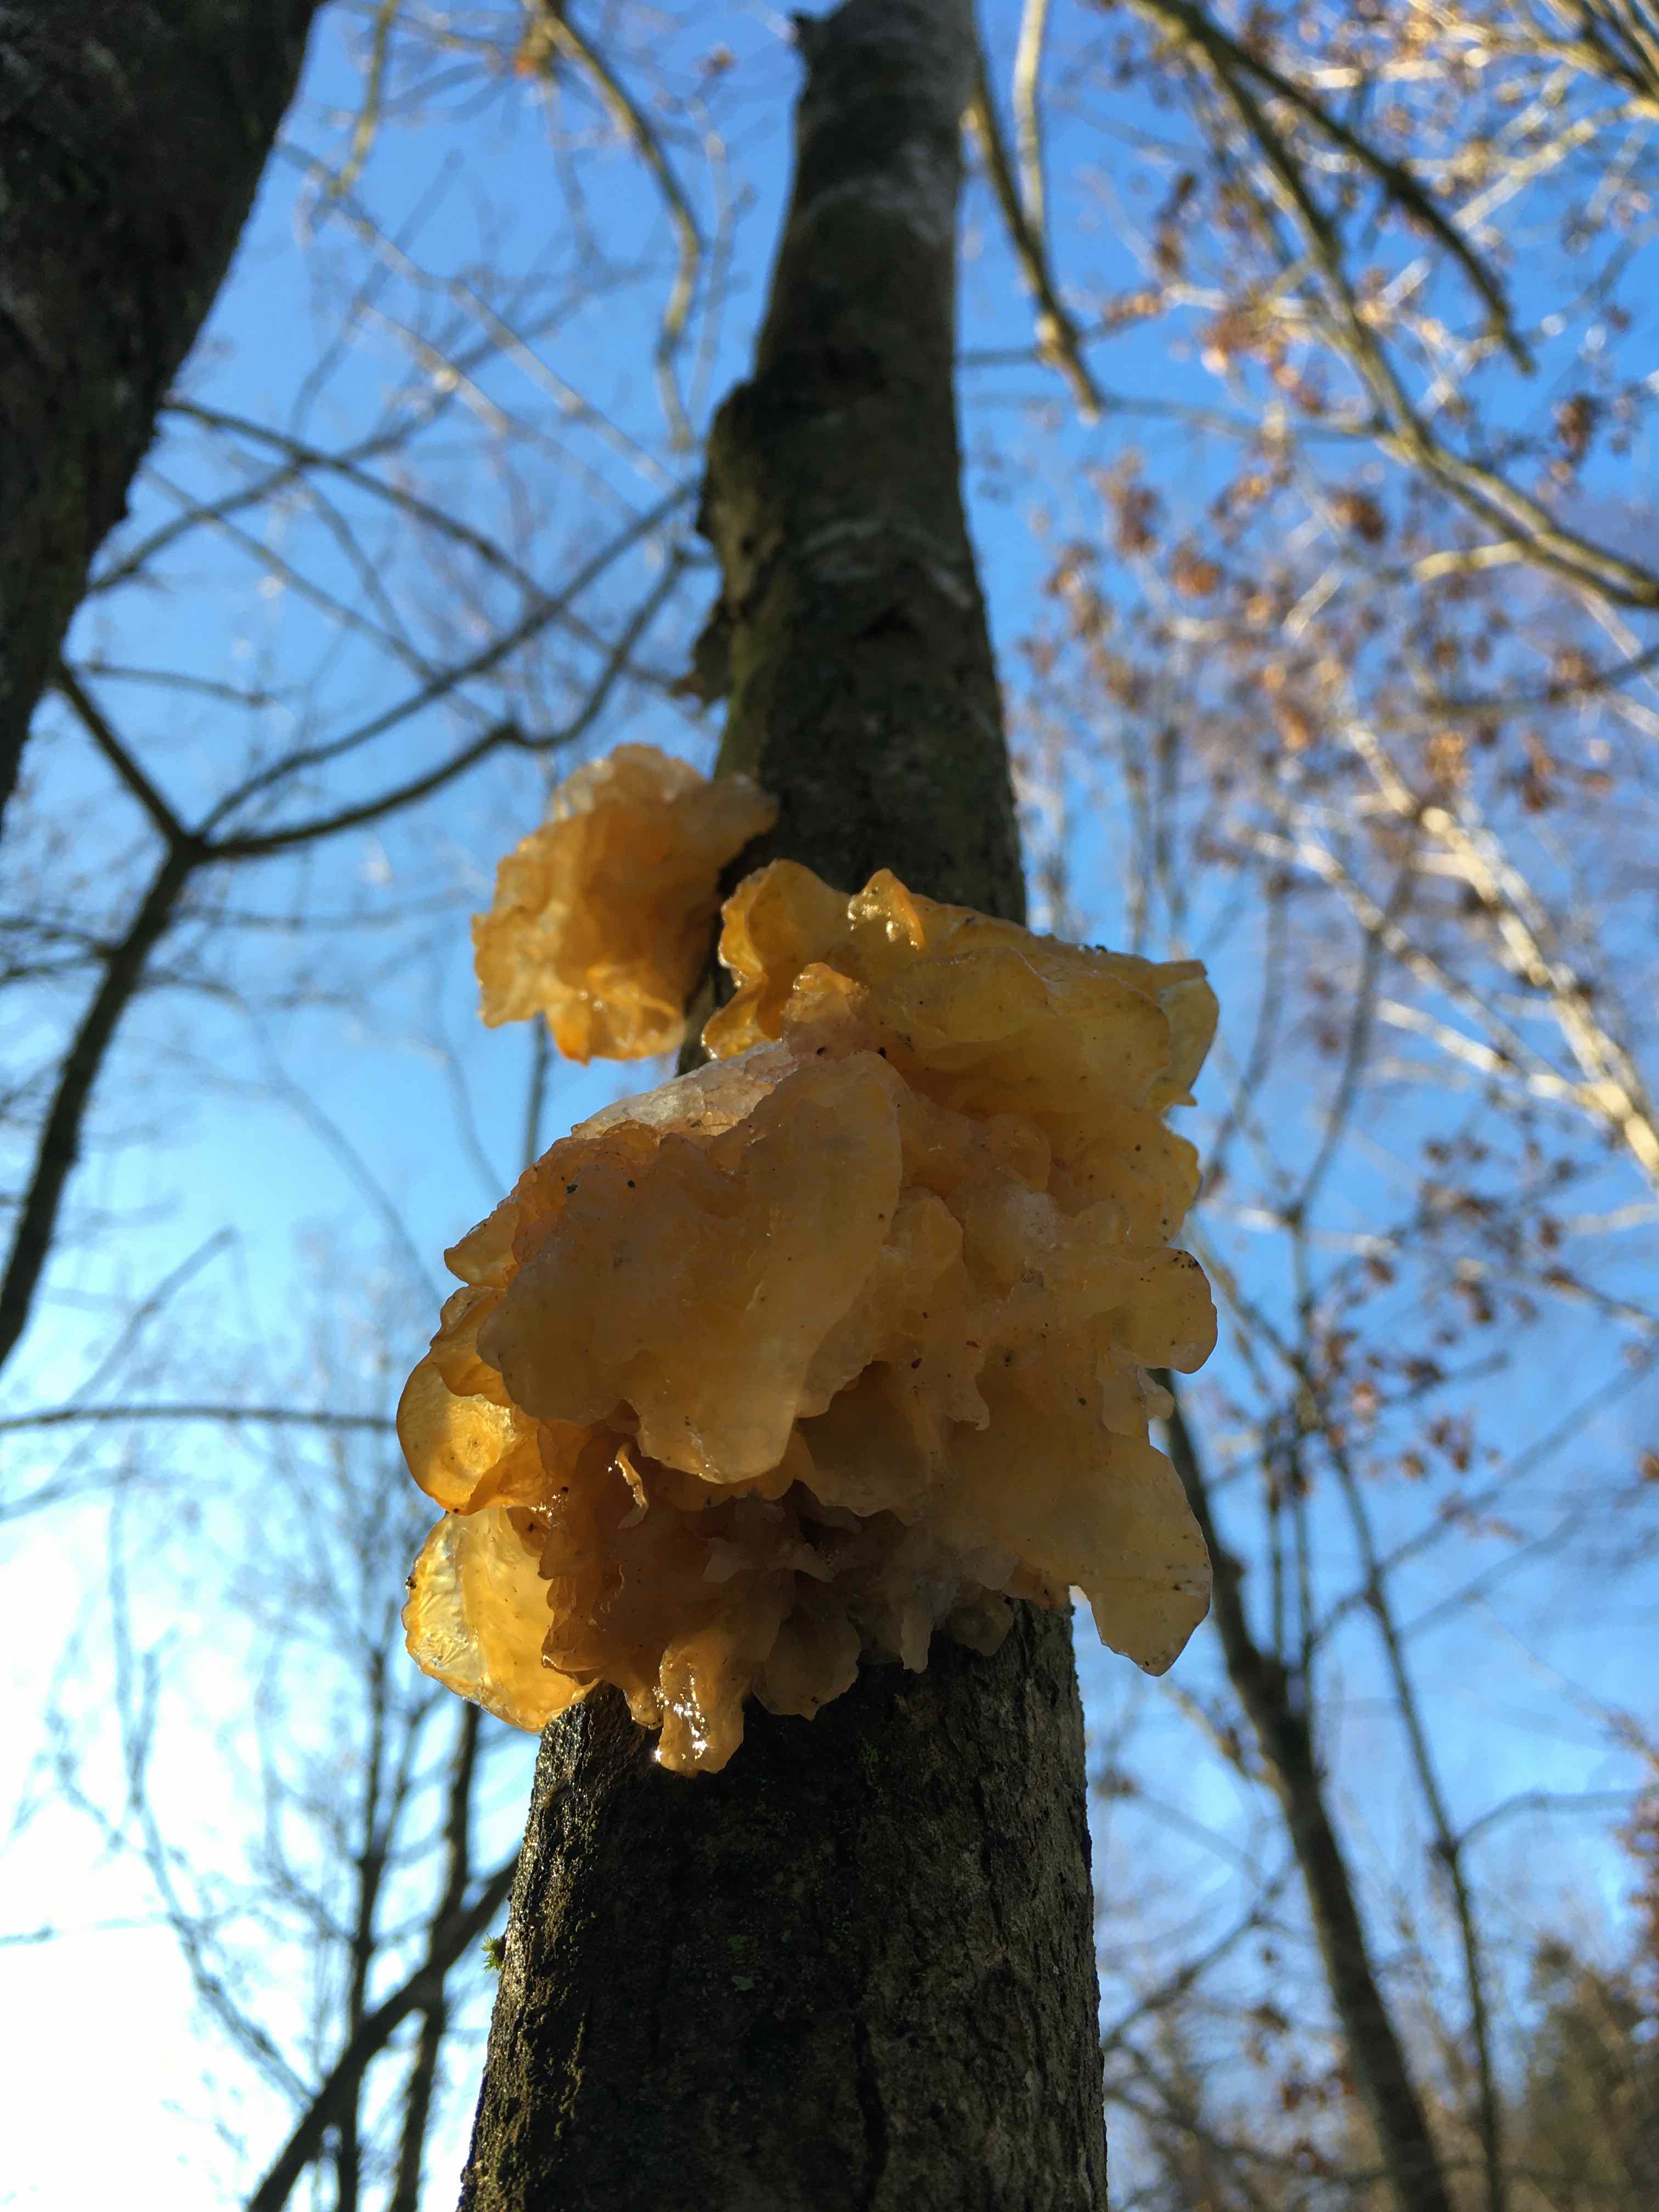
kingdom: Fungi
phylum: Basidiomycota
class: Tremellomycetes
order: Tremellales
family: Tremellaceae
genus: Tremella
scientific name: Tremella mesenterica
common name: gul bævresvamp
